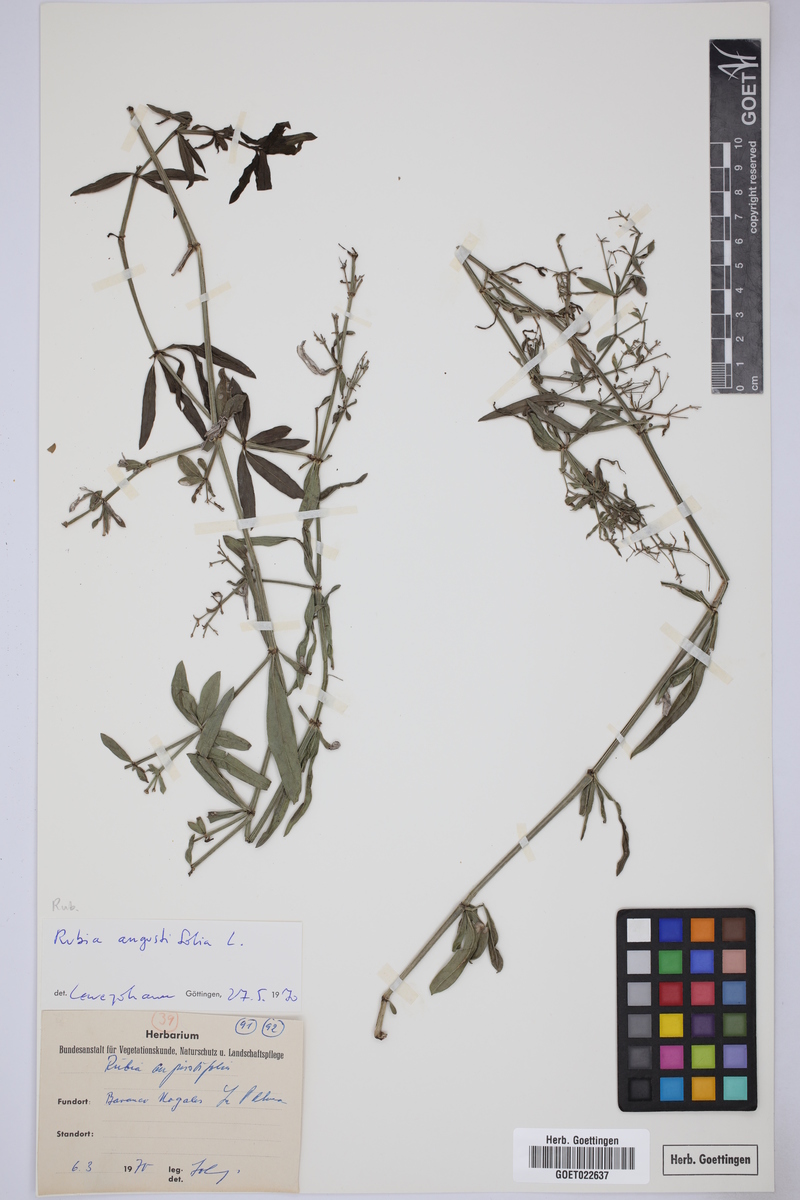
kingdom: Plantae
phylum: Tracheophyta
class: Magnoliopsida
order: Gentianales
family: Rubiaceae
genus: Rubia
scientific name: Rubia peregrina
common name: Wild madder
